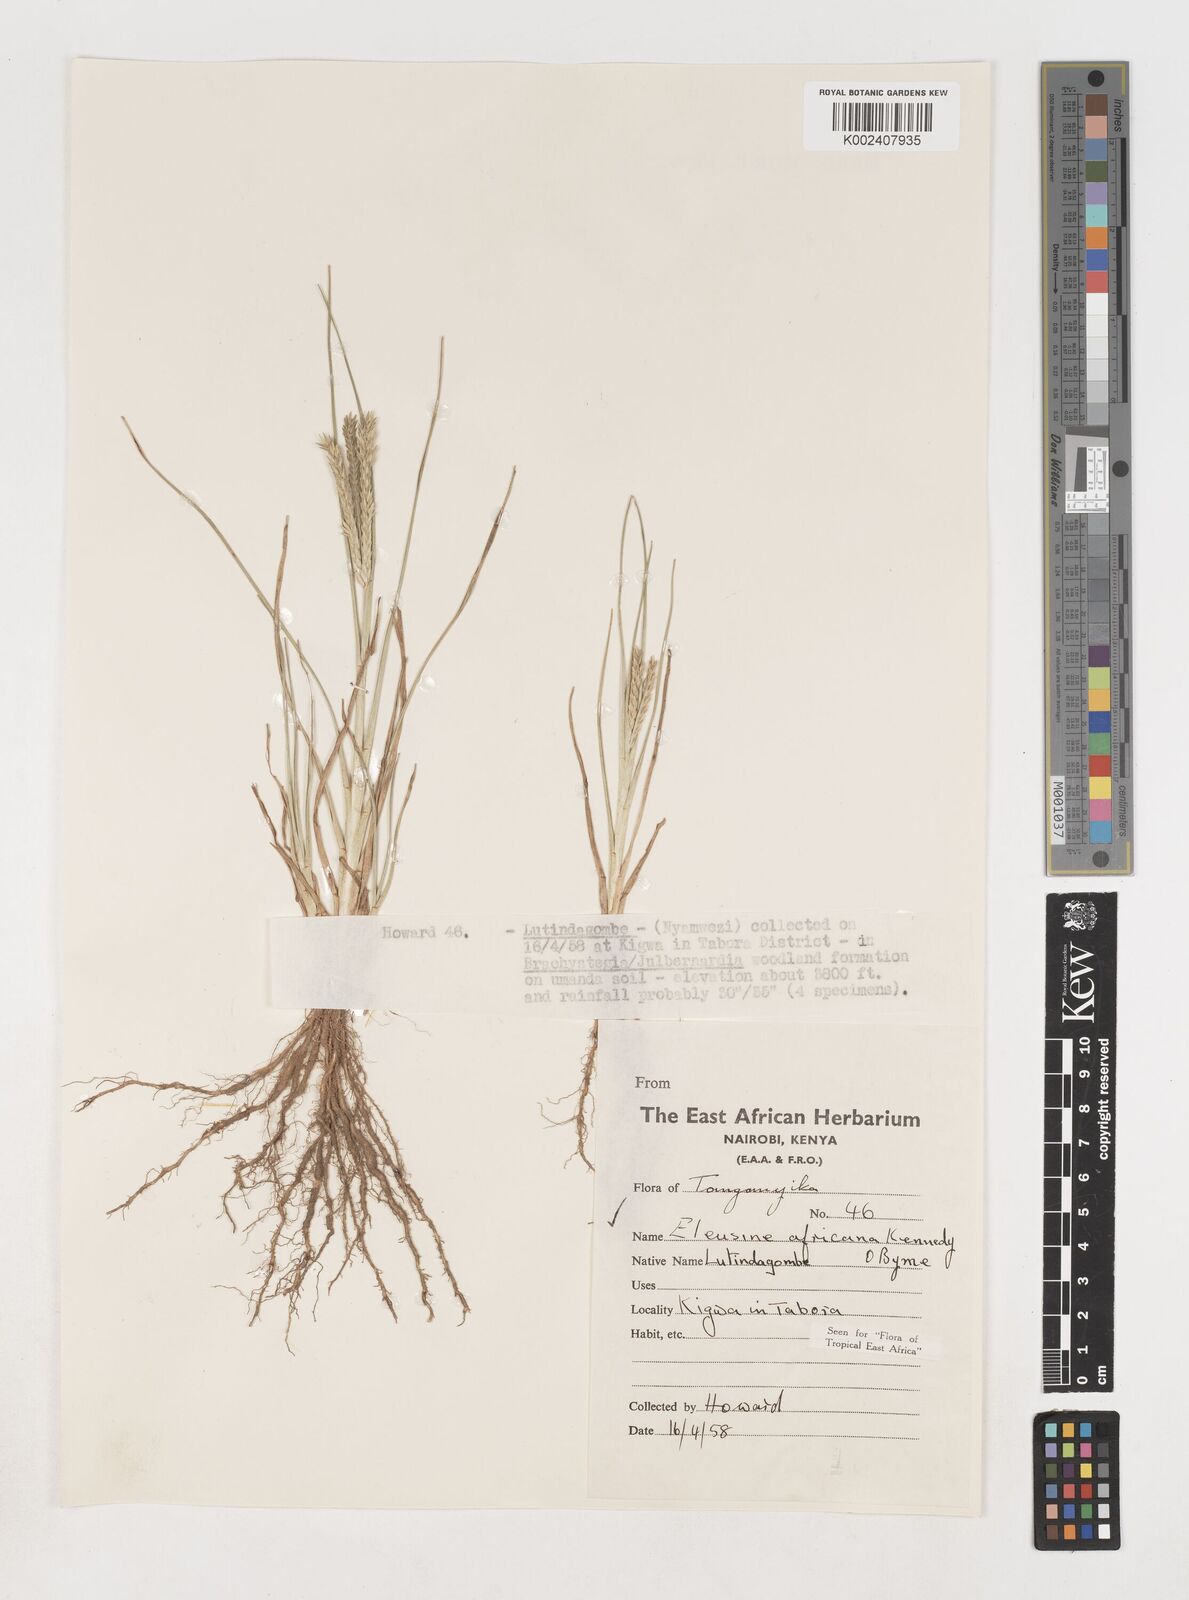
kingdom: Plantae
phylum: Tracheophyta
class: Liliopsida
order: Poales
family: Poaceae
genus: Eleusine
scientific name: Eleusine africana
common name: Wild african finger millet
